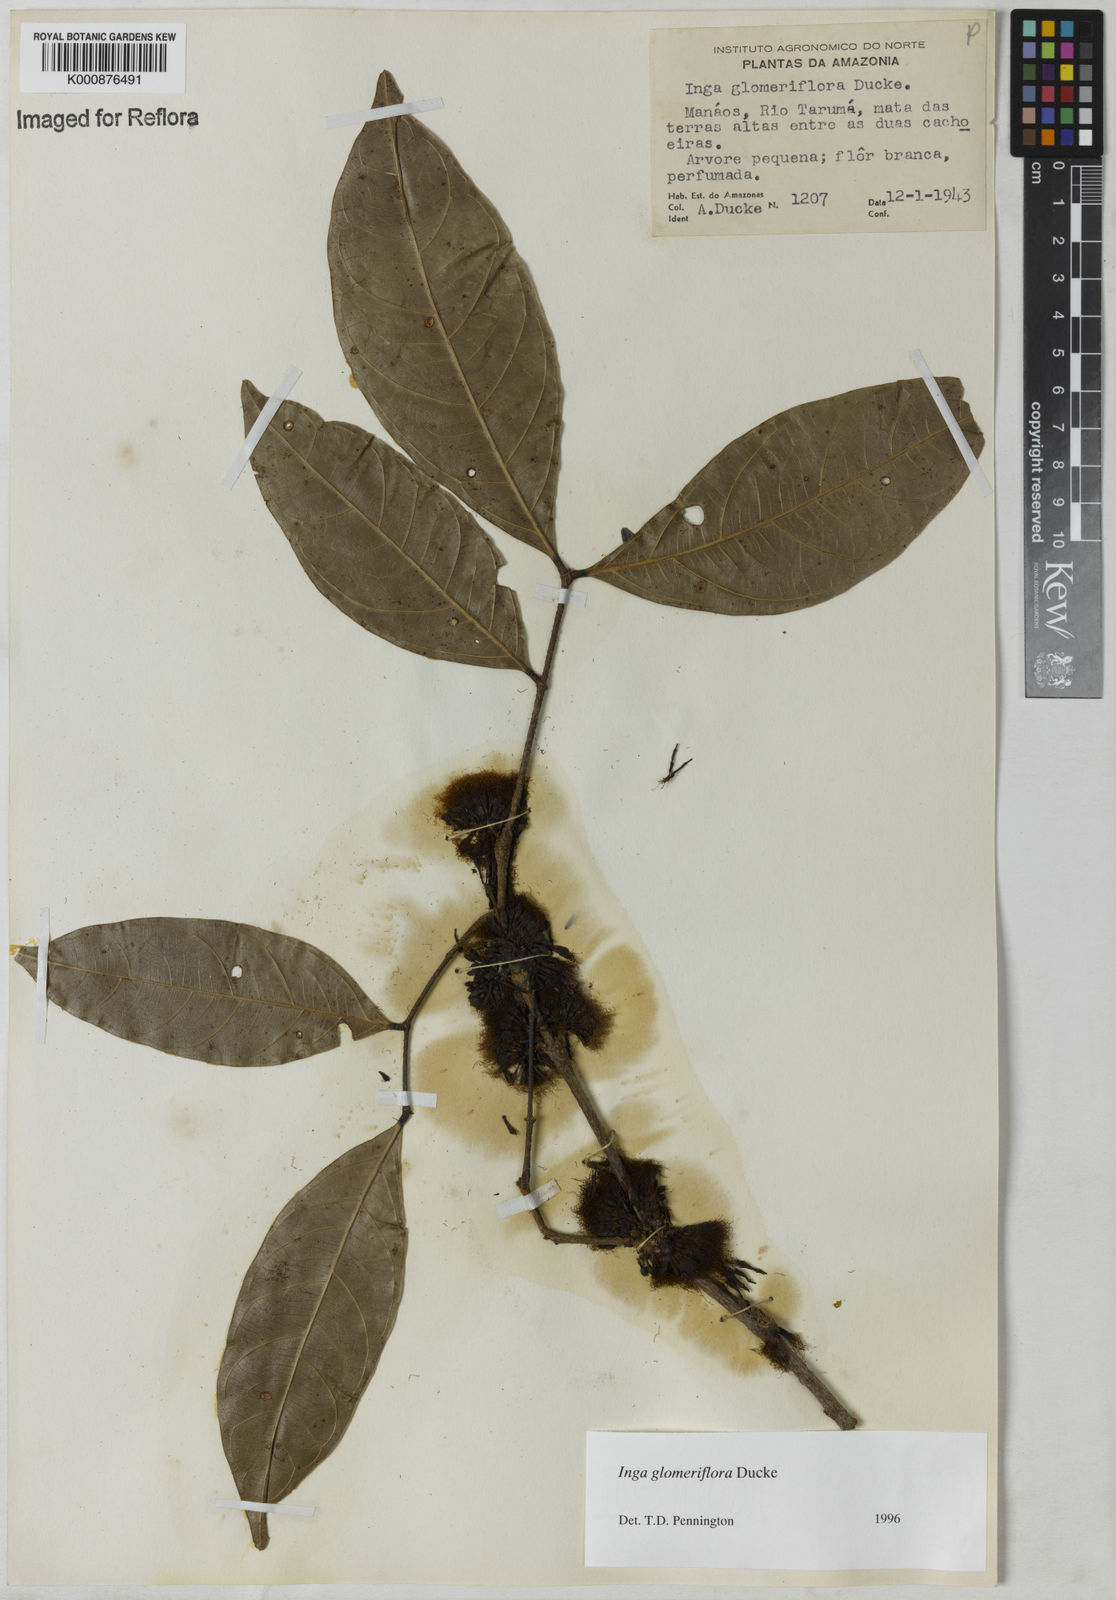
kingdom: Plantae
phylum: Tracheophyta
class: Magnoliopsida
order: Fabales
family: Fabaceae
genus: Inga
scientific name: Inga glomeriflora
